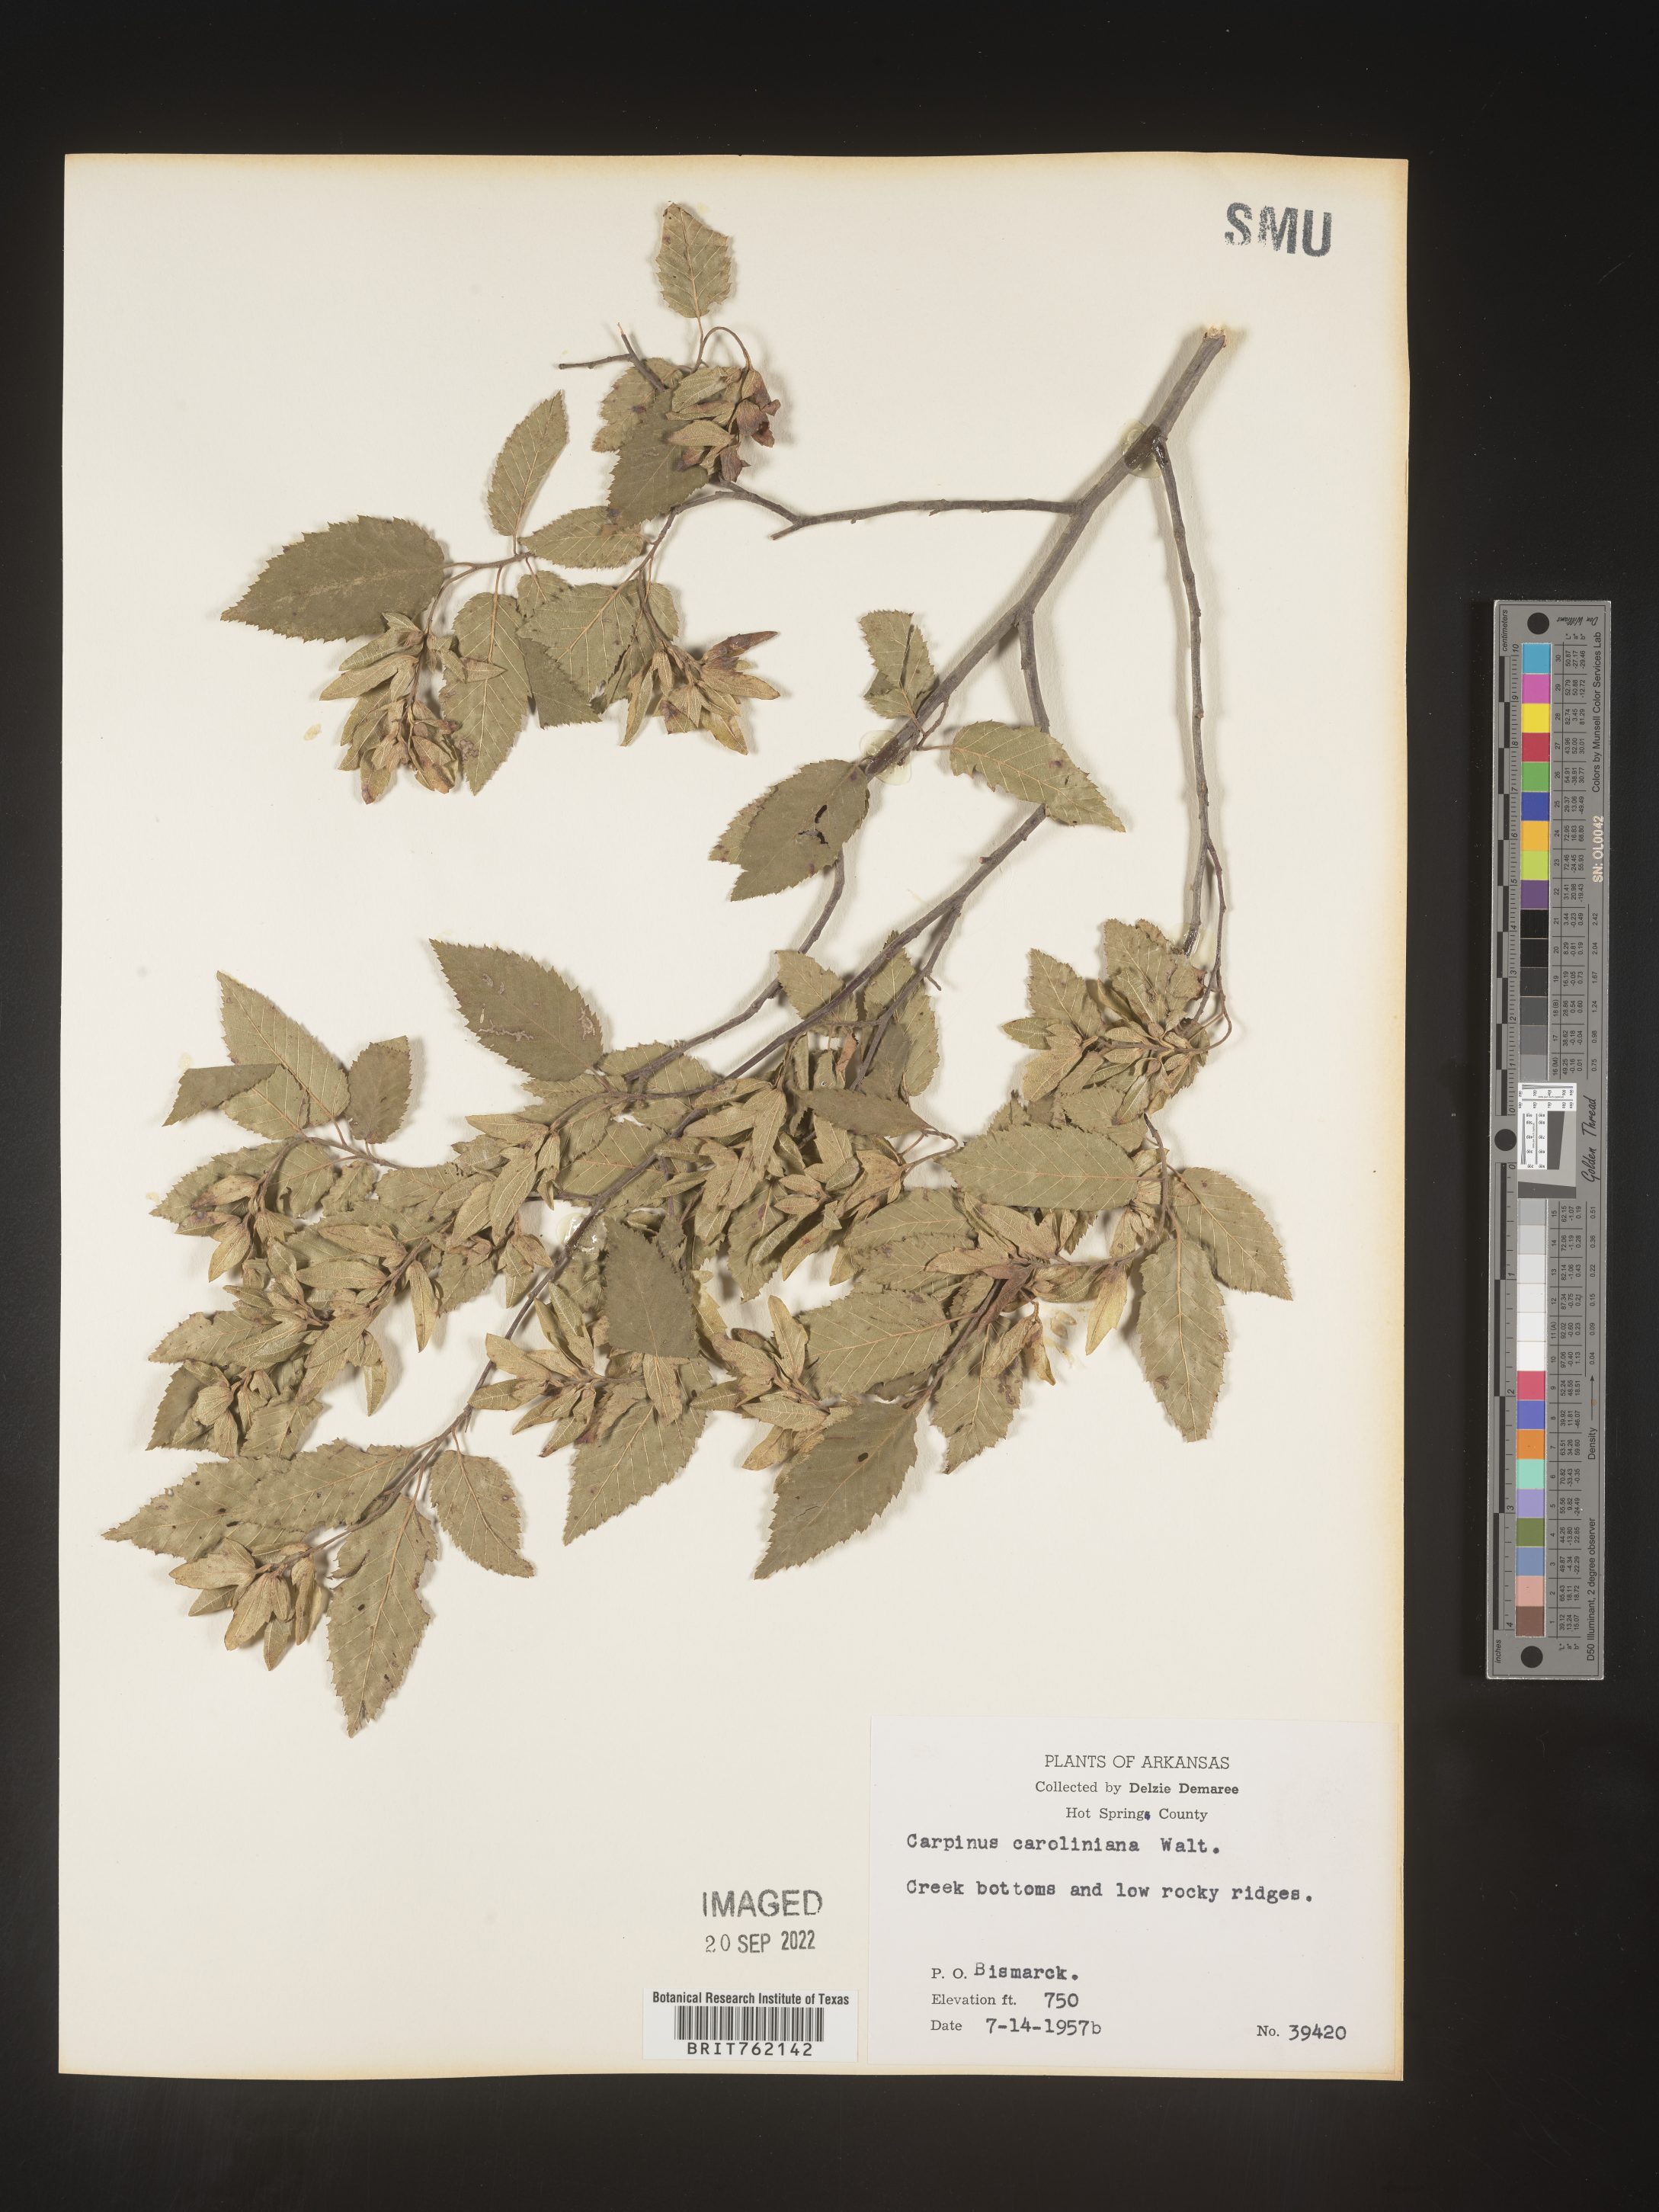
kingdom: Plantae
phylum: Tracheophyta
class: Magnoliopsida
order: Fagales
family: Betulaceae
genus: Carpinus
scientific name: Carpinus caroliniana
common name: American hornbeam
